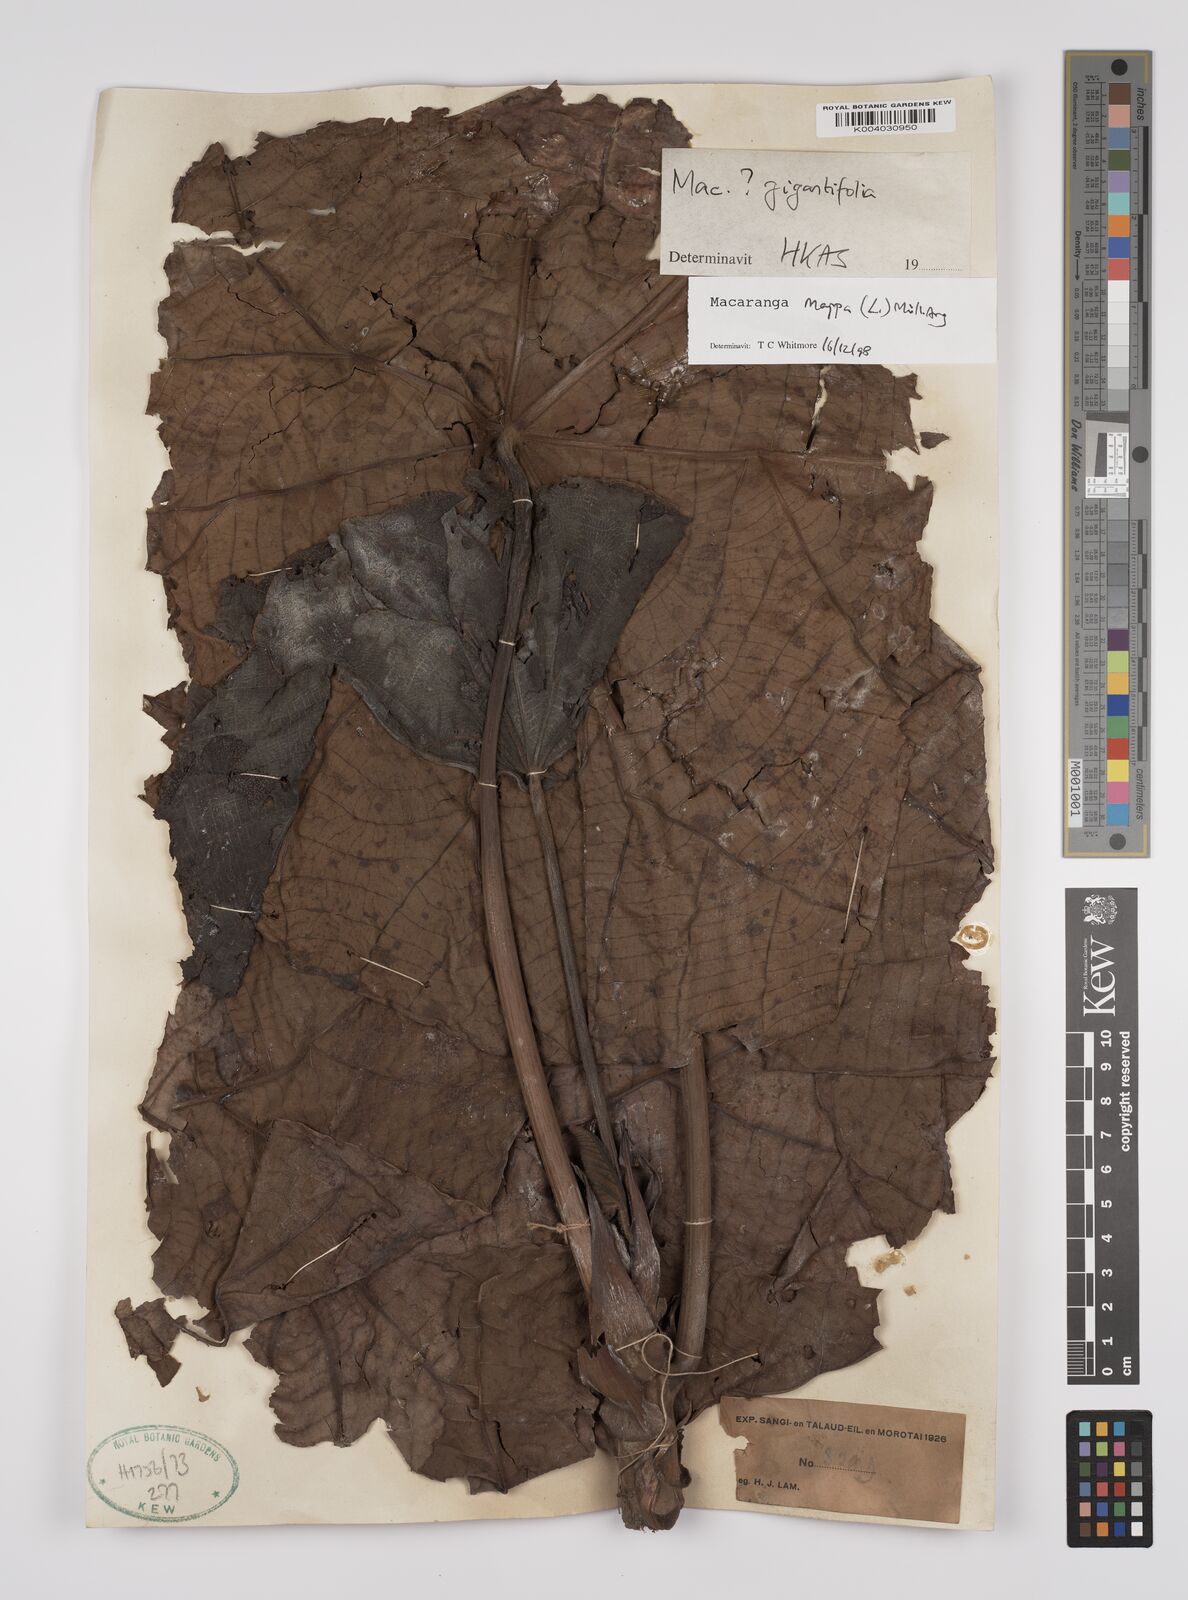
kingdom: Plantae
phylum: Tracheophyta
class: Magnoliopsida
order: Malpighiales
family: Euphorbiaceae
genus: Macaranga
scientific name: Macaranga mappa
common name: Pengua
